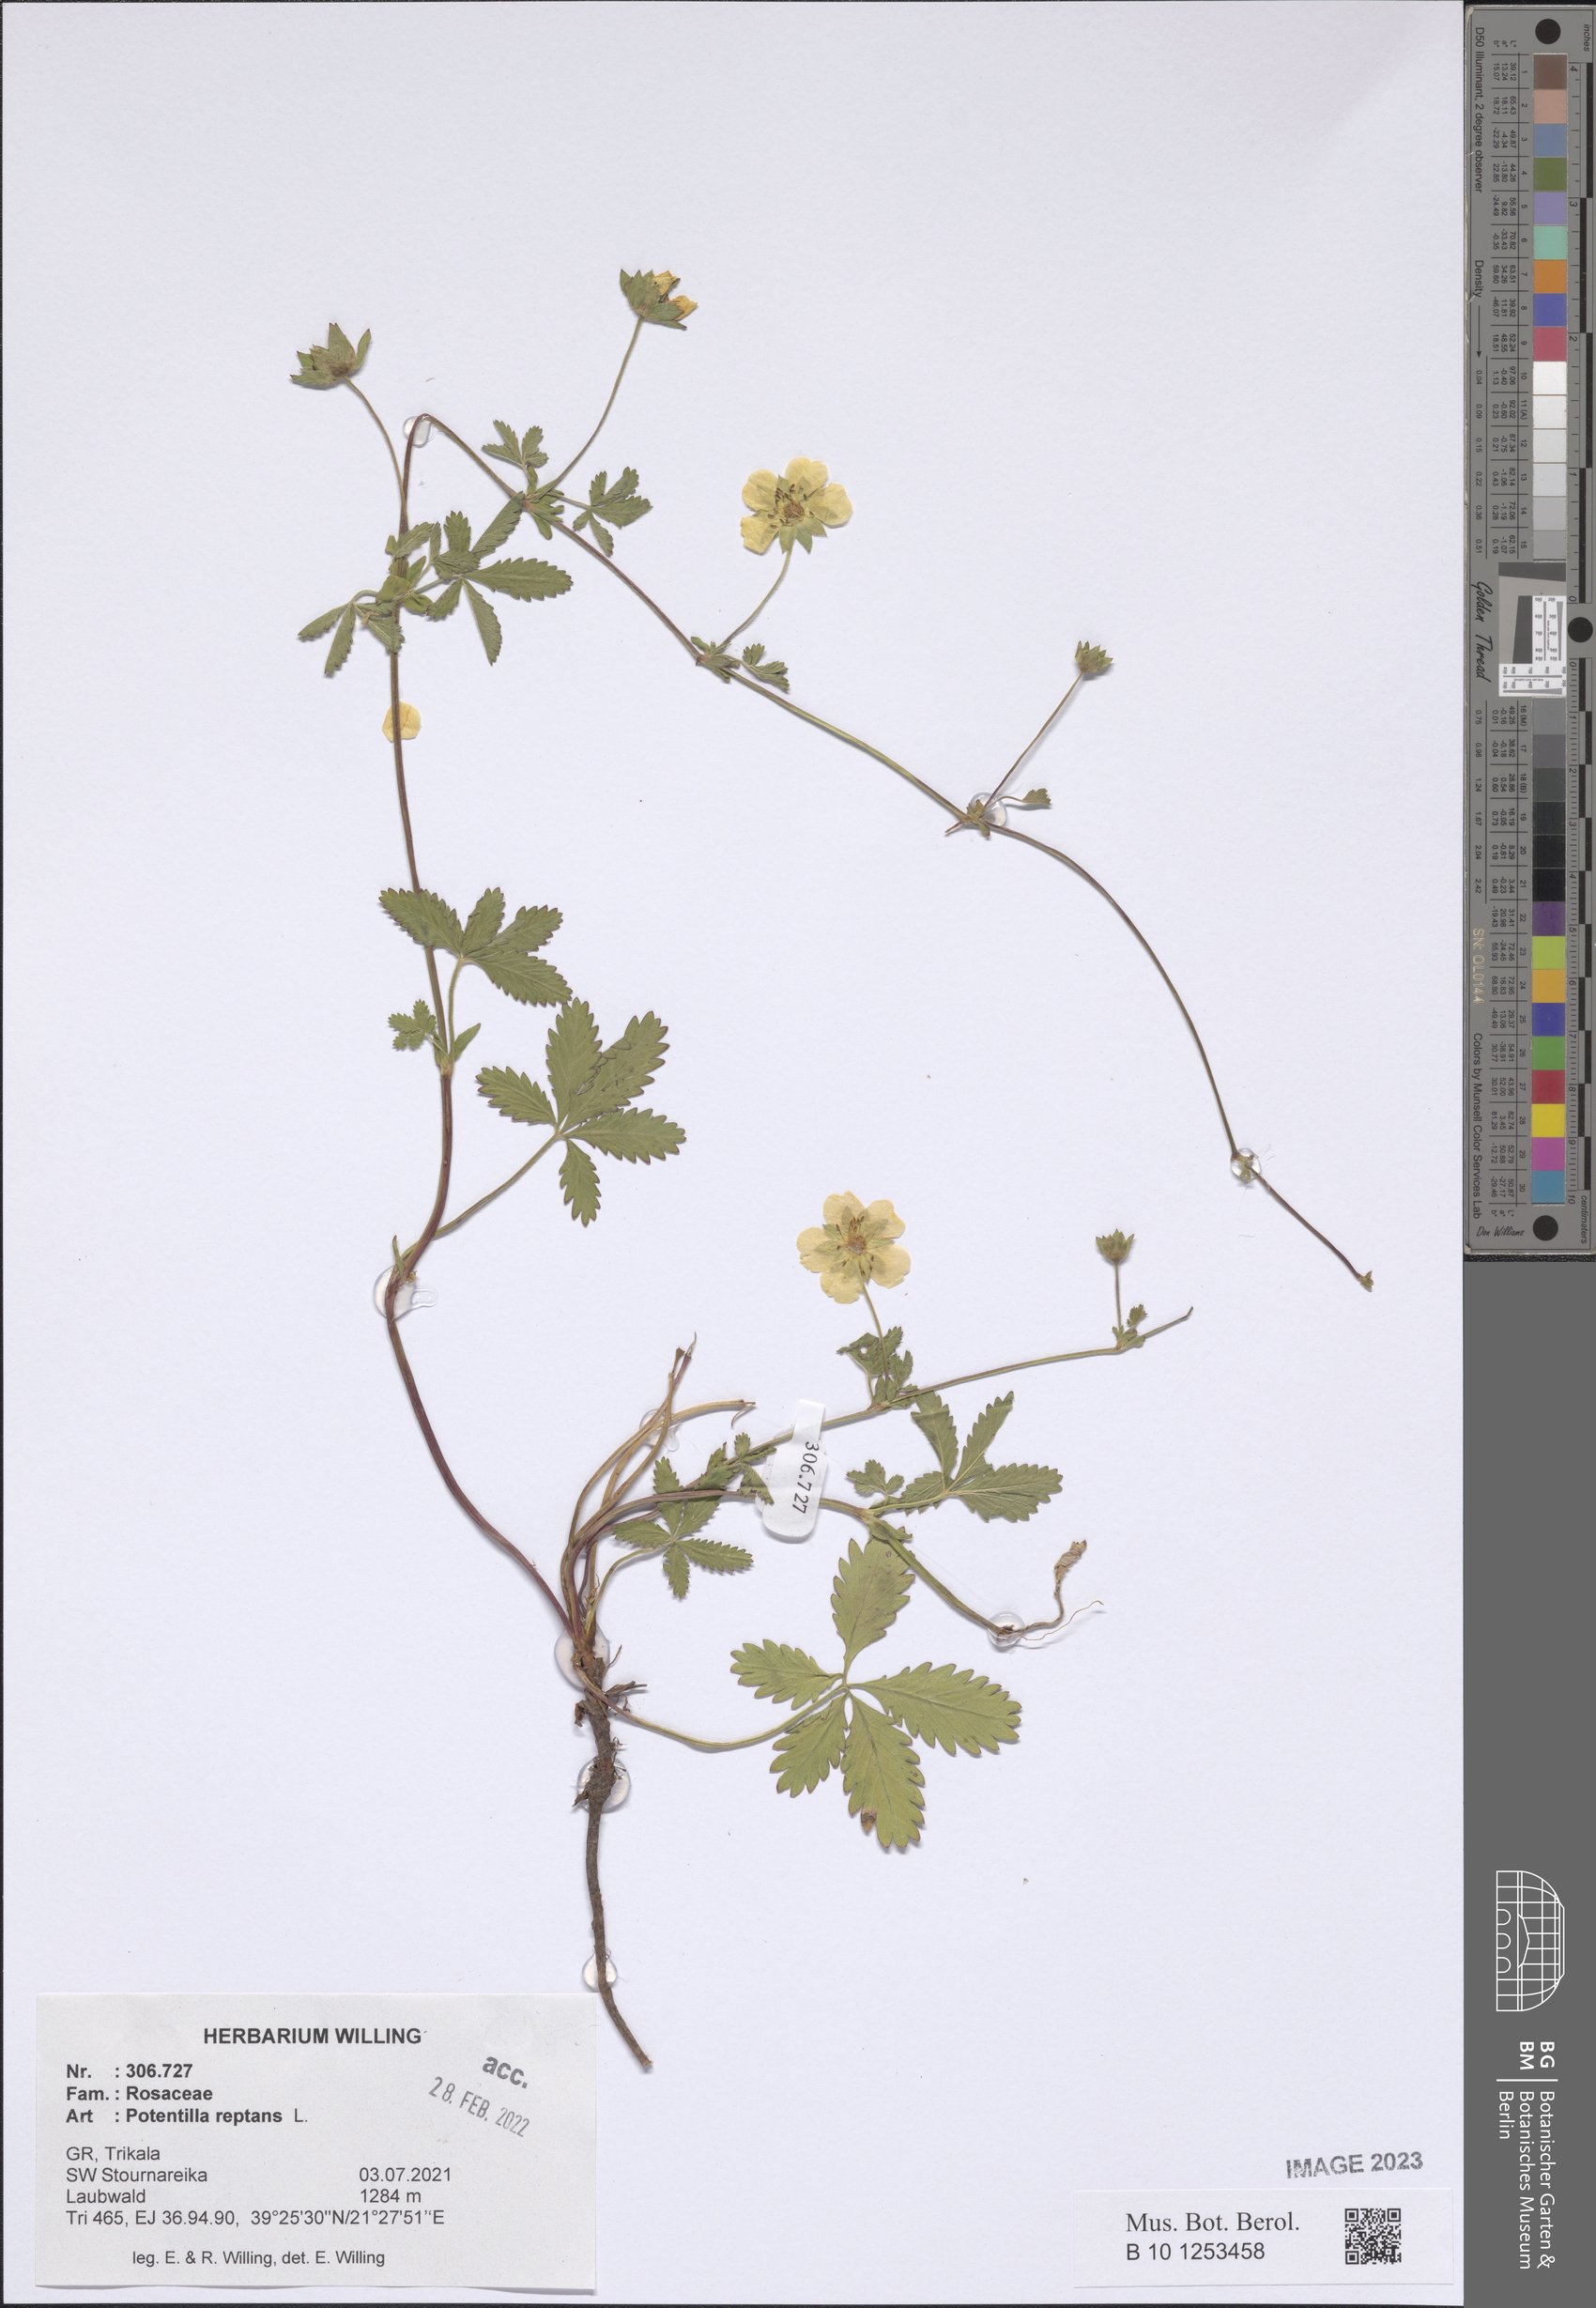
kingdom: Plantae
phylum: Tracheophyta
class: Magnoliopsida
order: Rosales
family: Rosaceae
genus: Potentilla
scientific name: Potentilla reptans
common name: Creeping cinquefoil
